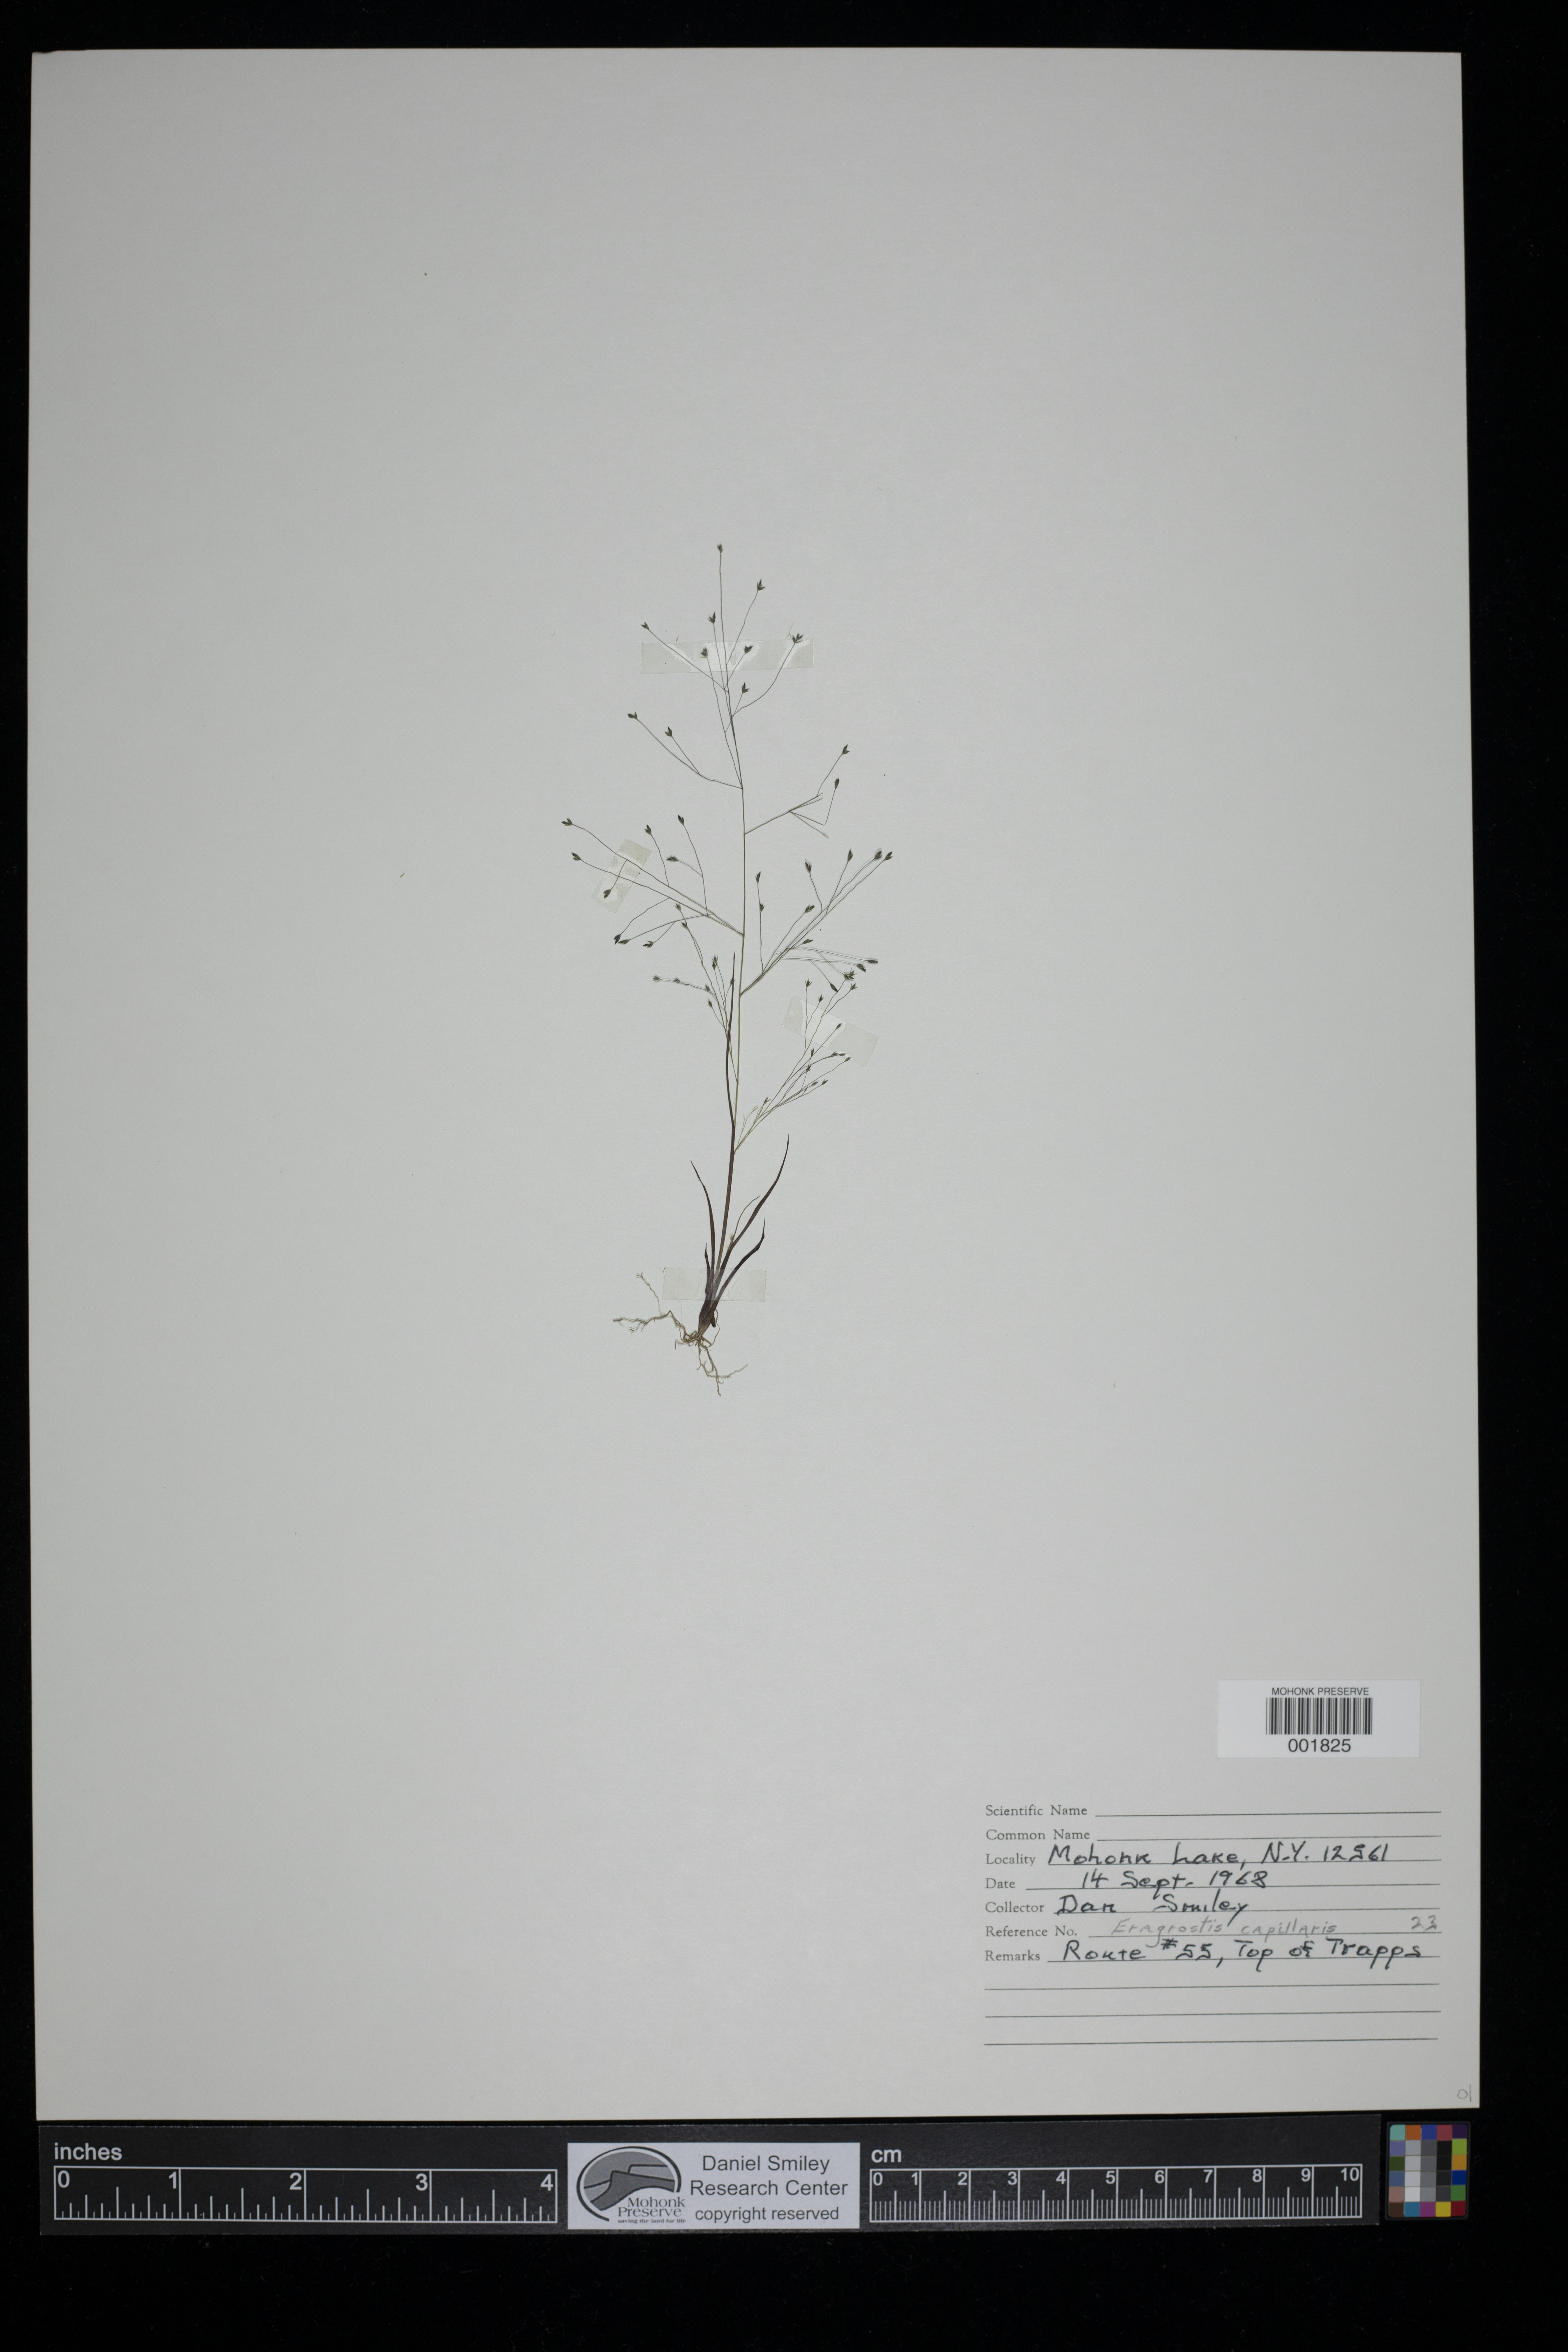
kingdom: Plantae
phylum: Tracheophyta
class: Liliopsida
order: Poales
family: Poaceae
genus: Eragrostis
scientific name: Eragrostis capillaris
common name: Hair-like lovegrass
